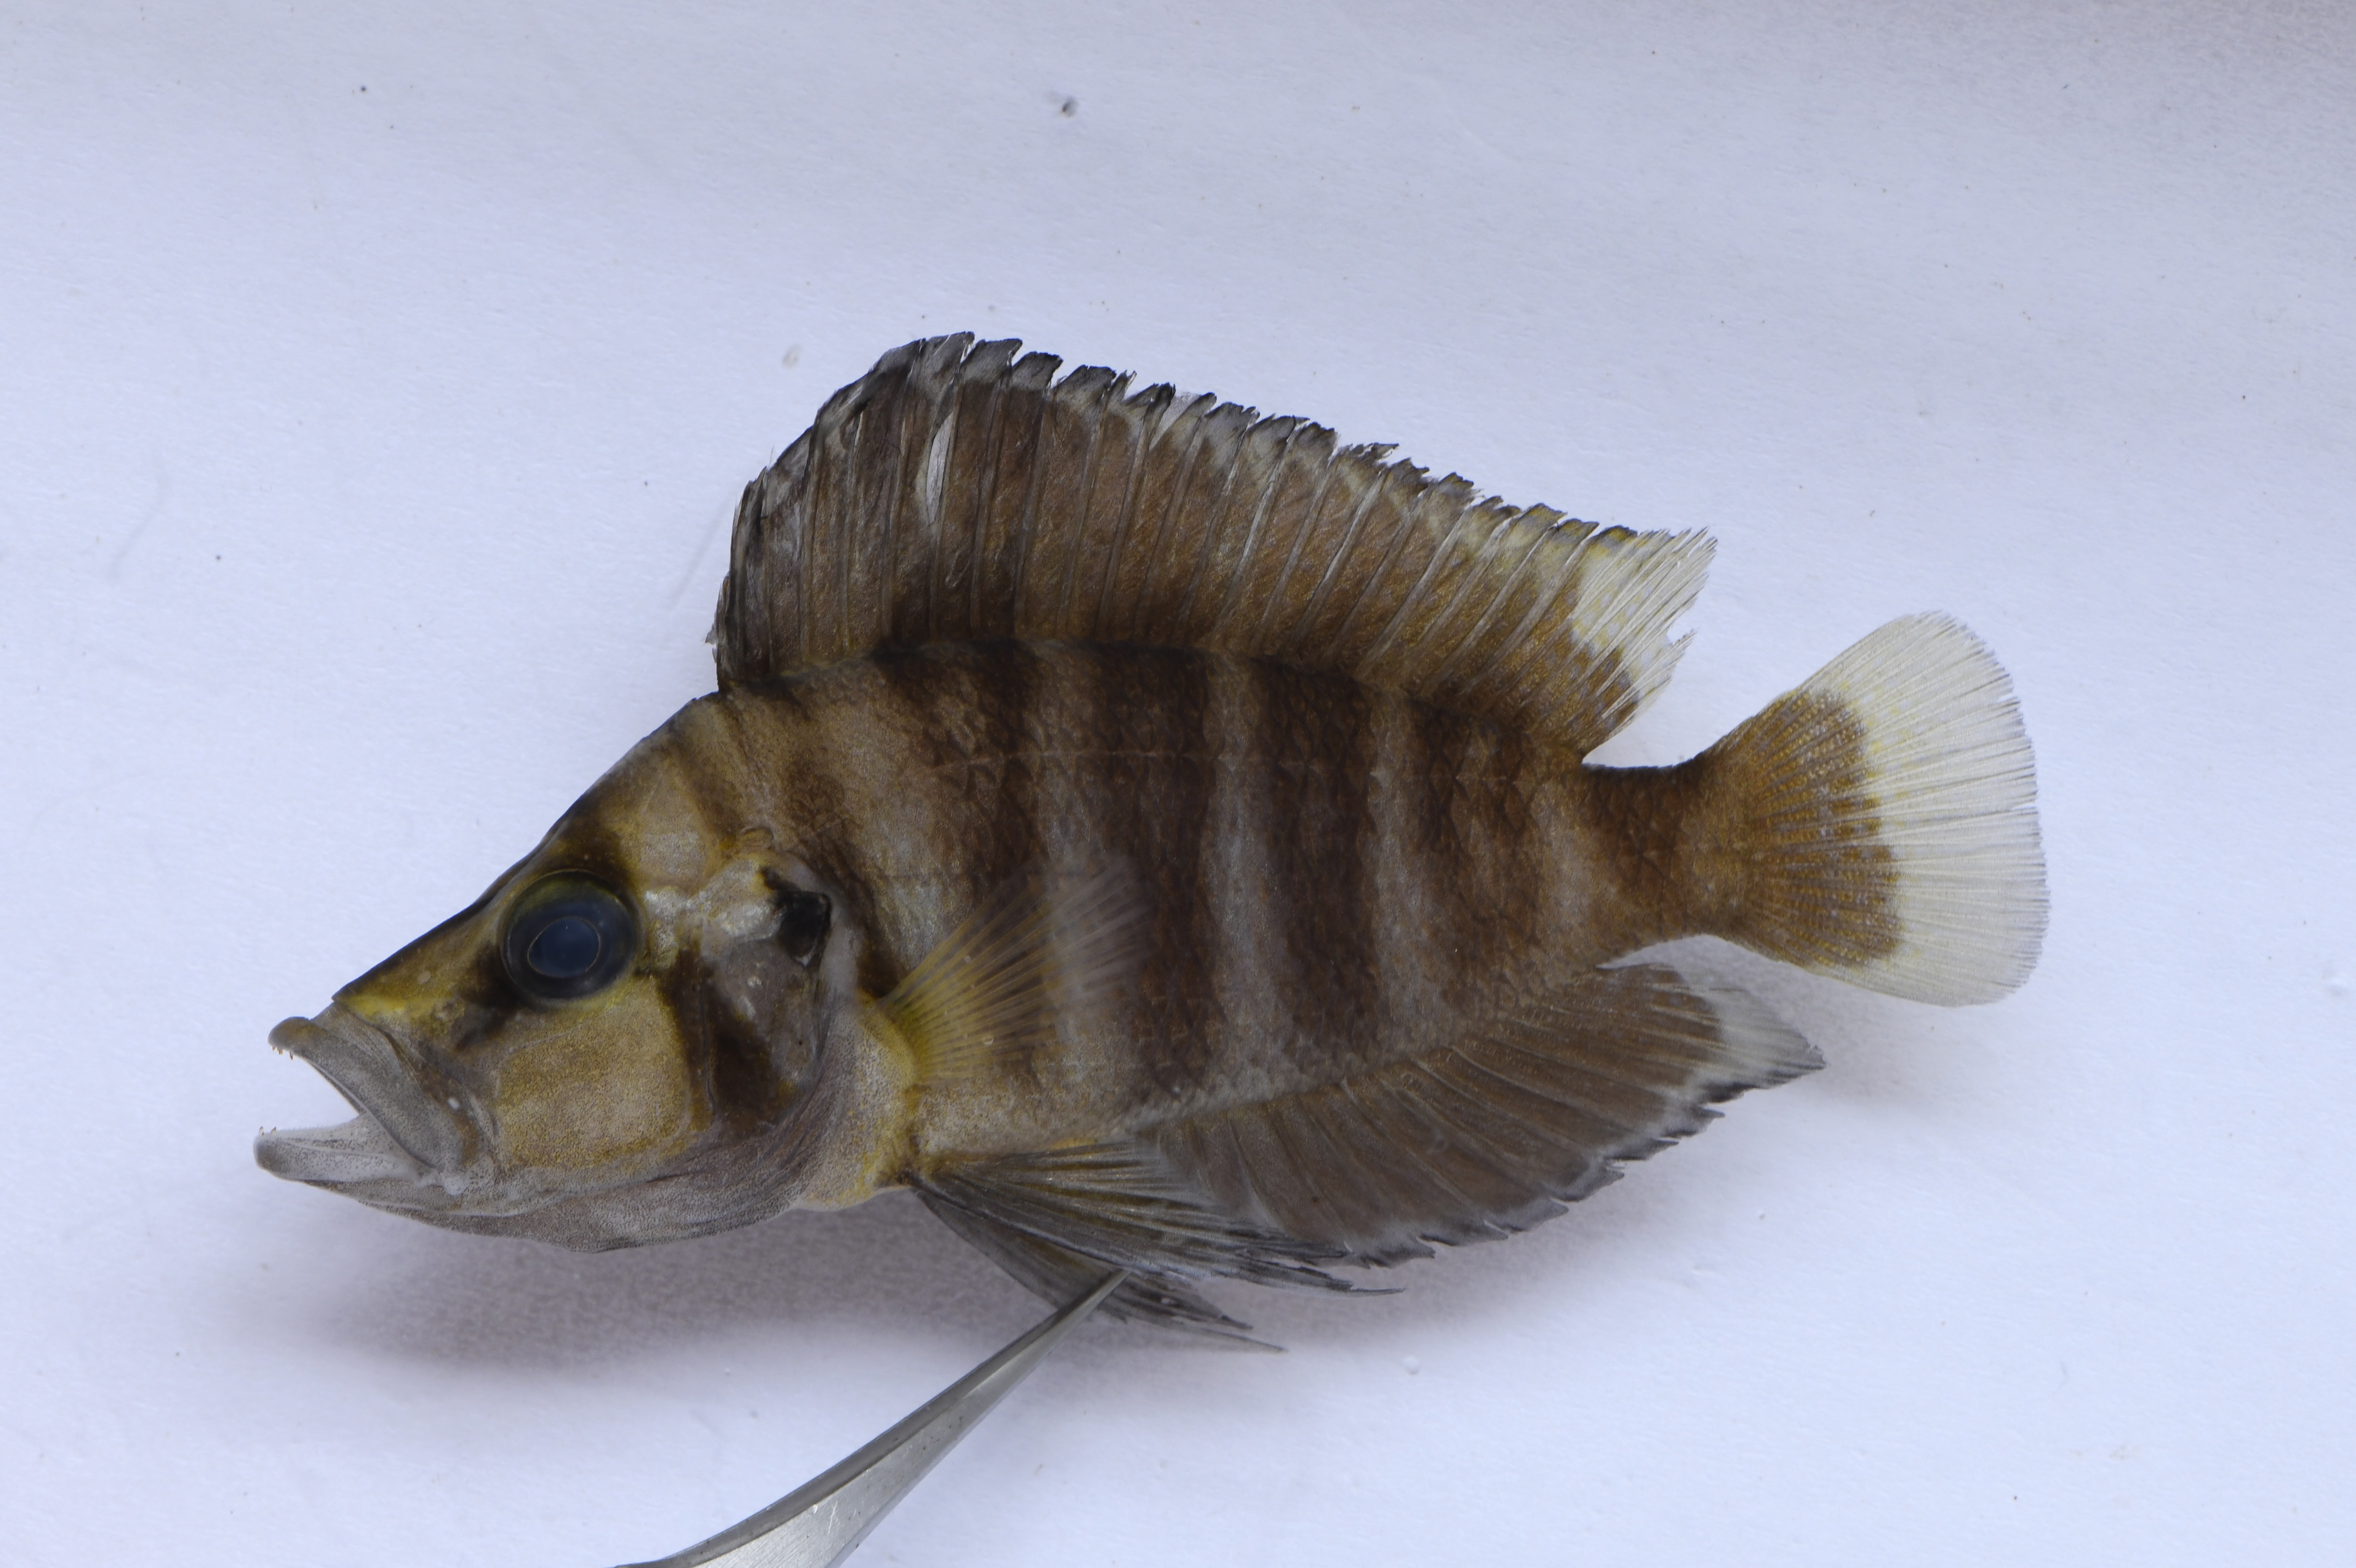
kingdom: Animalia
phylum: Chordata
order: Perciformes
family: Cichlidae
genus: Altolamprologus
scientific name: Altolamprologus compressiceps
